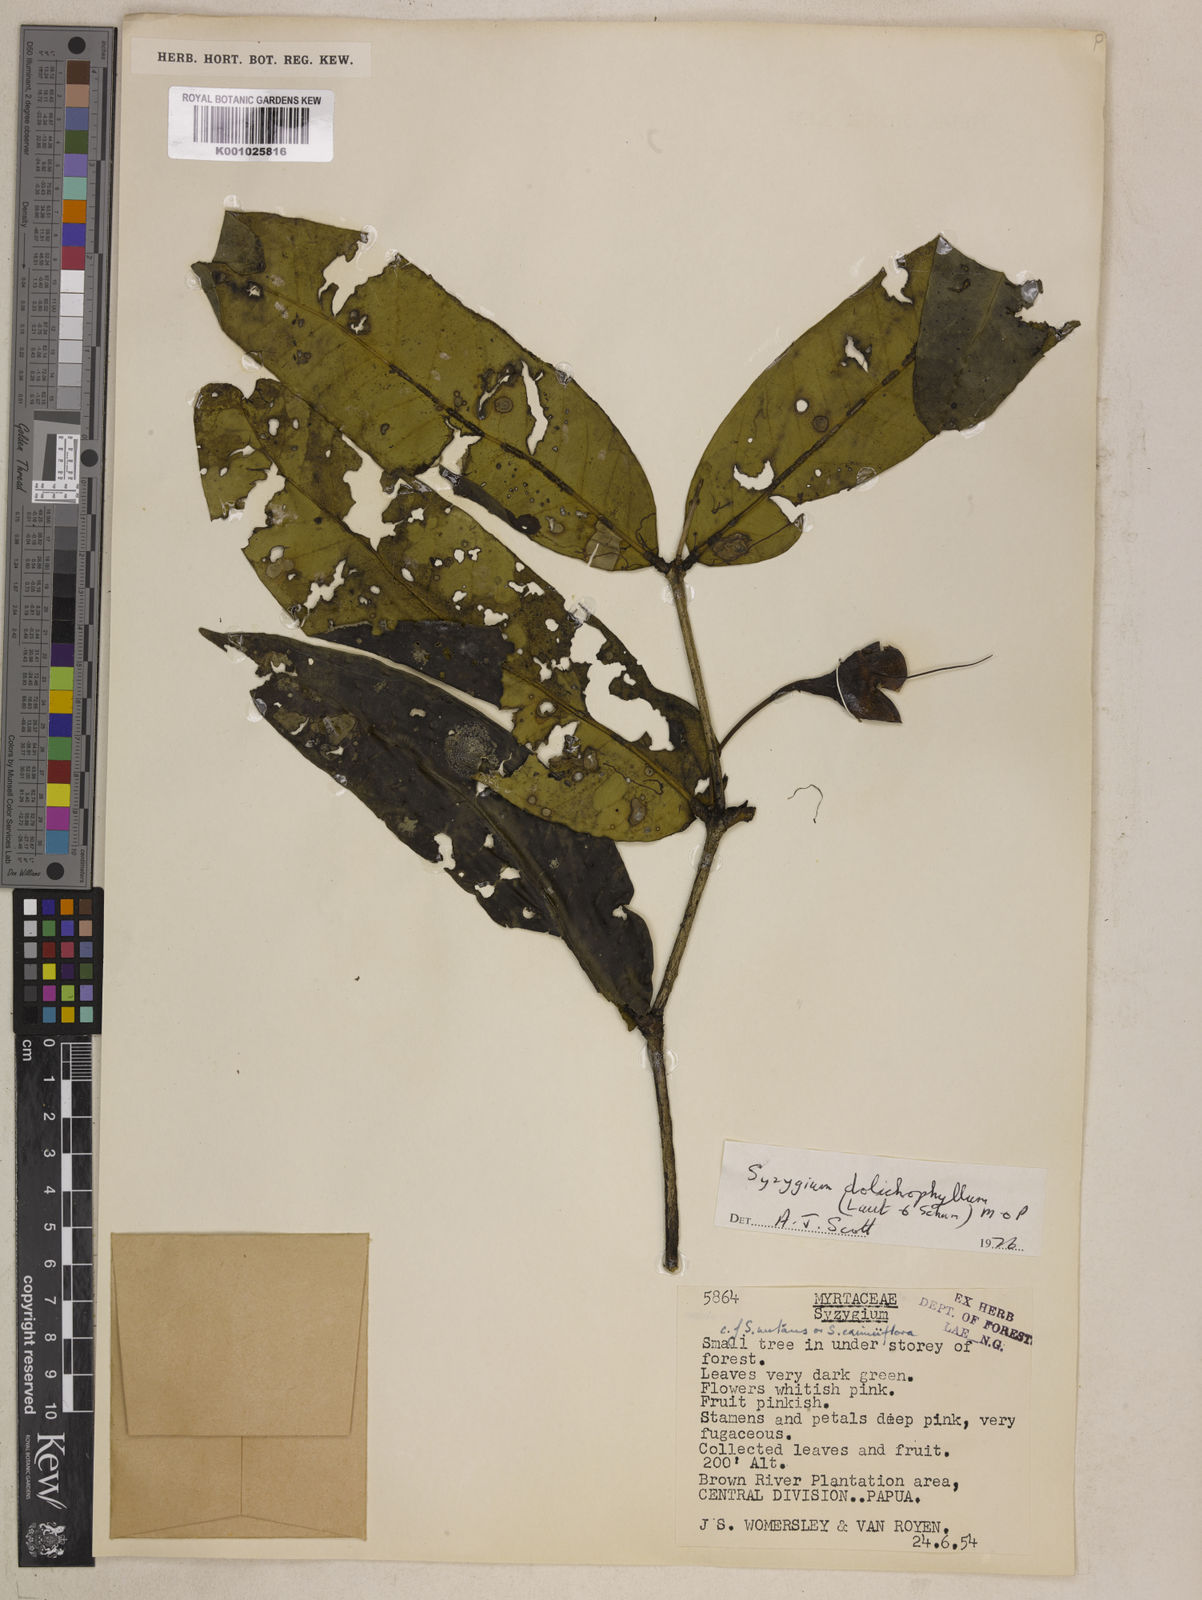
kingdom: Plantae
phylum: Tracheophyta
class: Magnoliopsida
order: Myrtales
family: Myrtaceae
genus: Syzygium
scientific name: Syzygium dolichophyllum
